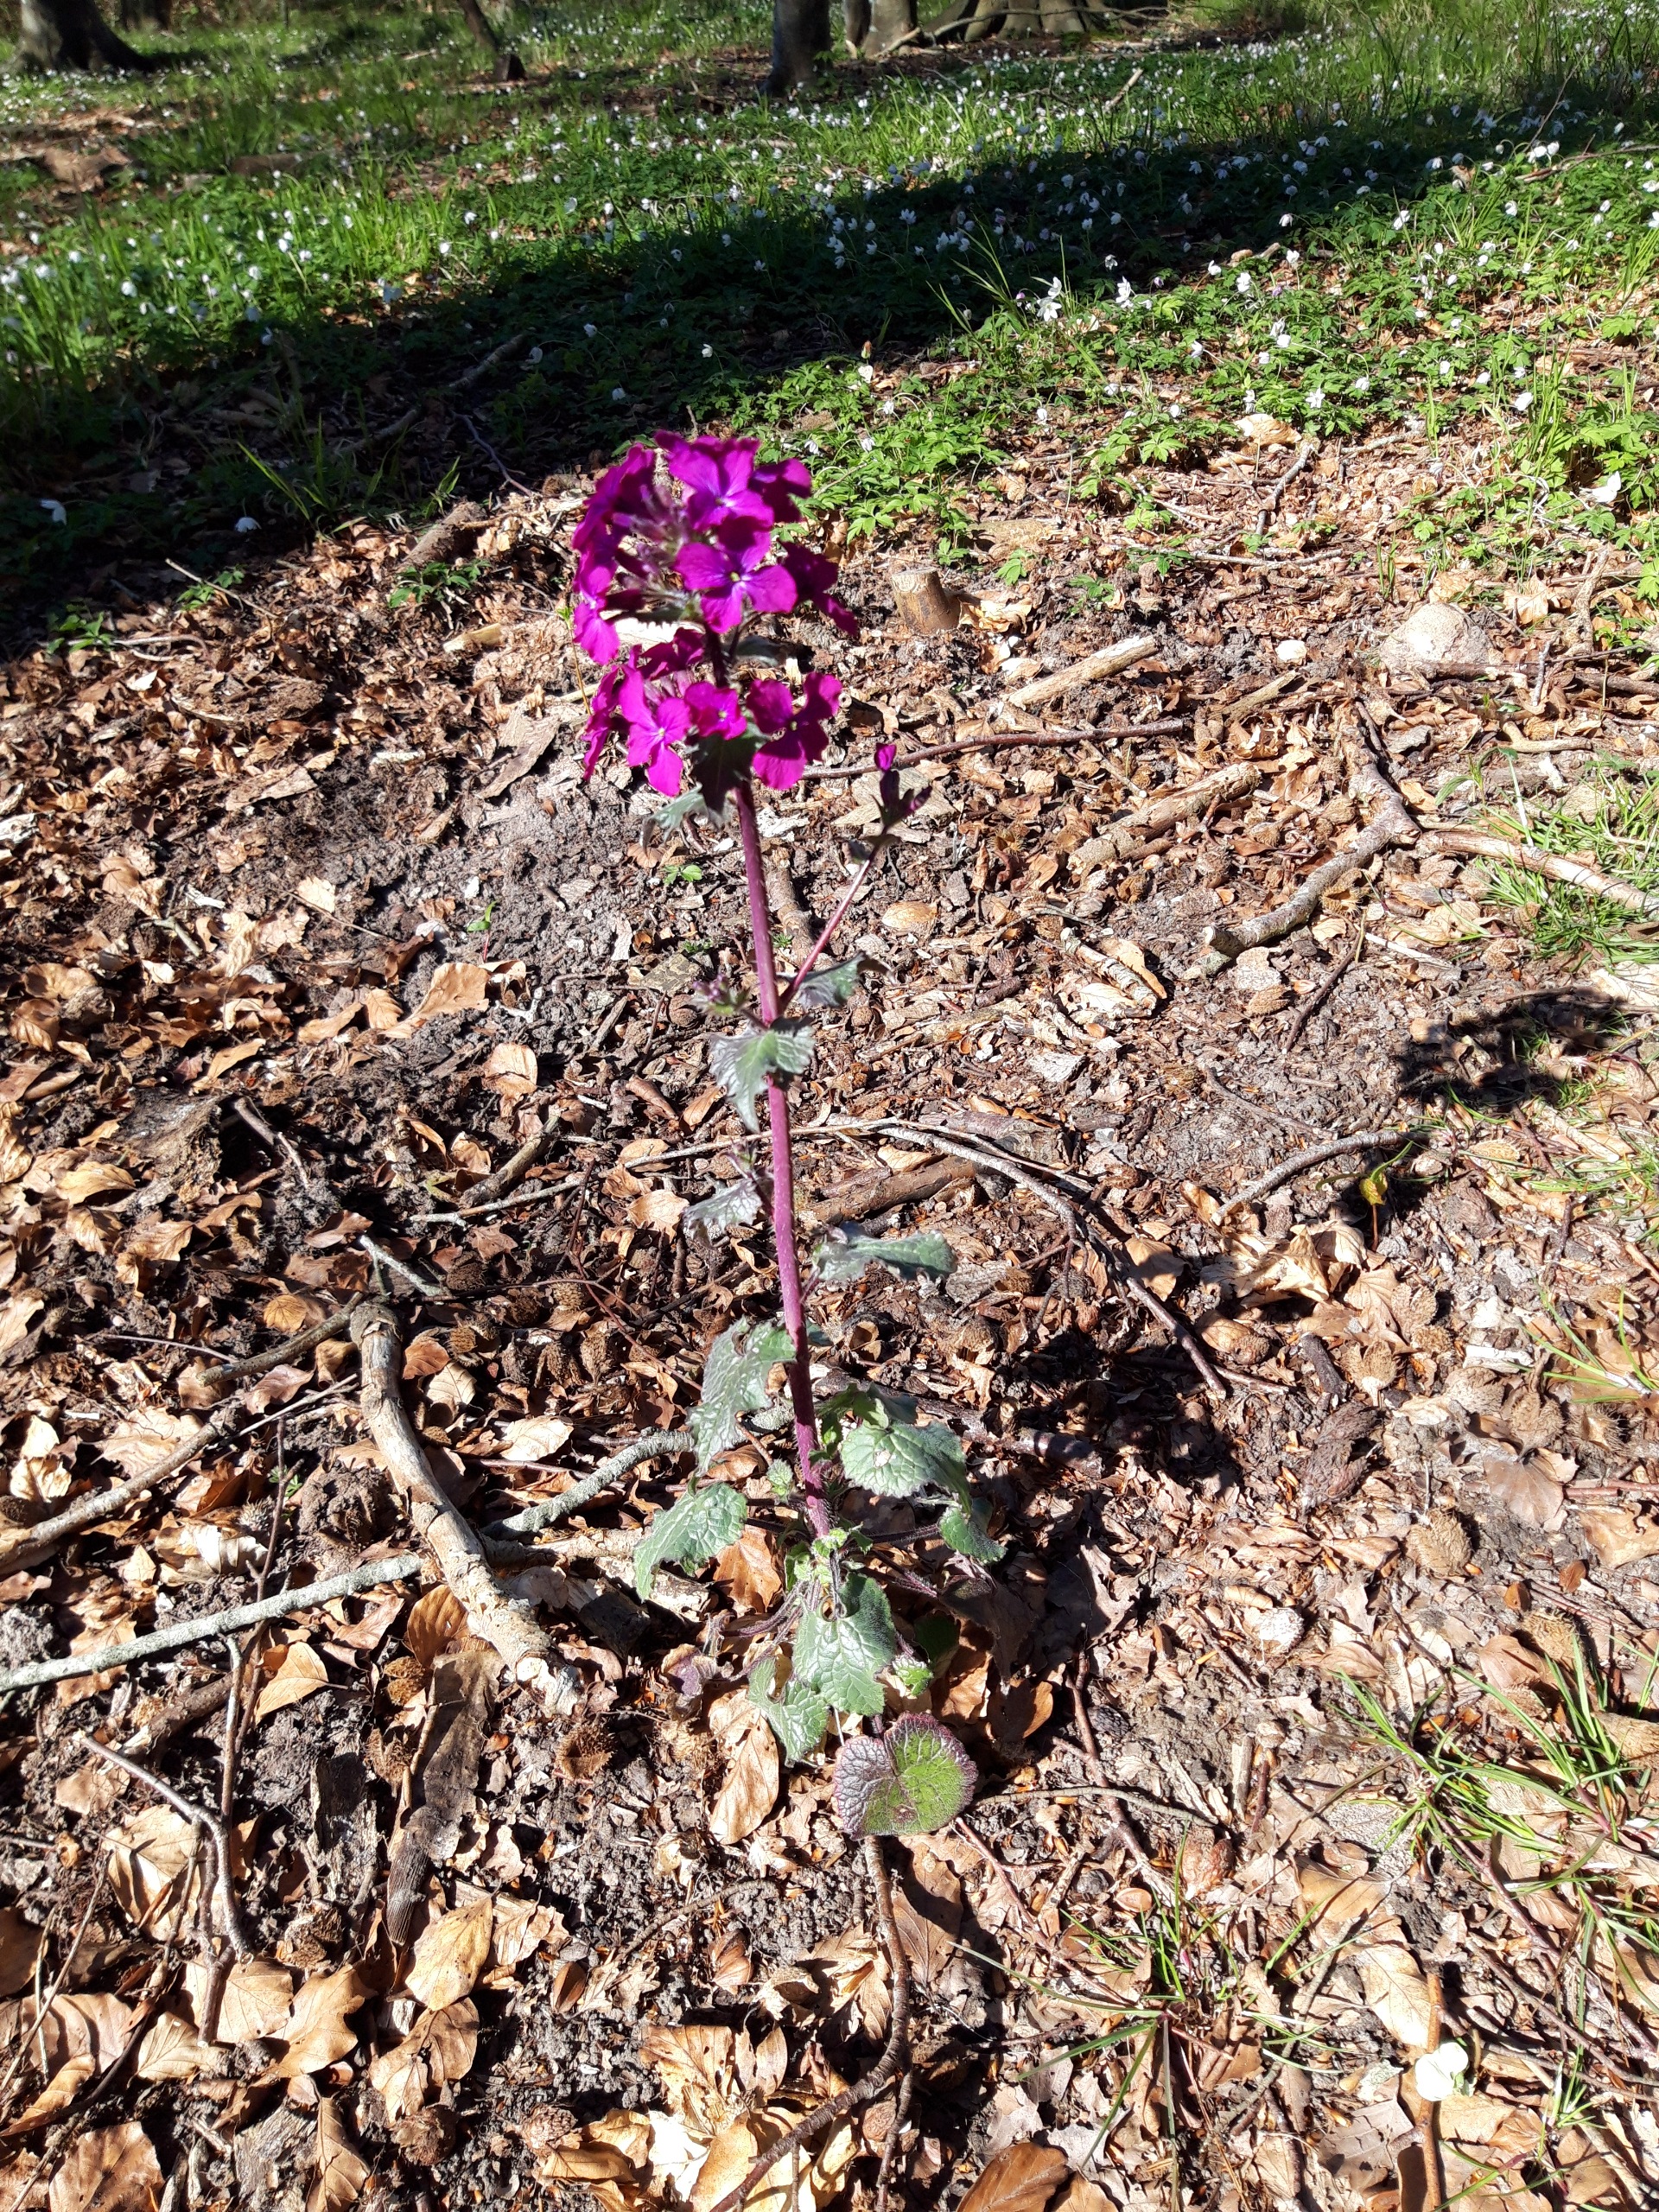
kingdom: Plantae
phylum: Tracheophyta
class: Magnoliopsida
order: Brassicales
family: Brassicaceae
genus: Lunaria
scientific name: Lunaria annua
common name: Judaspenge
